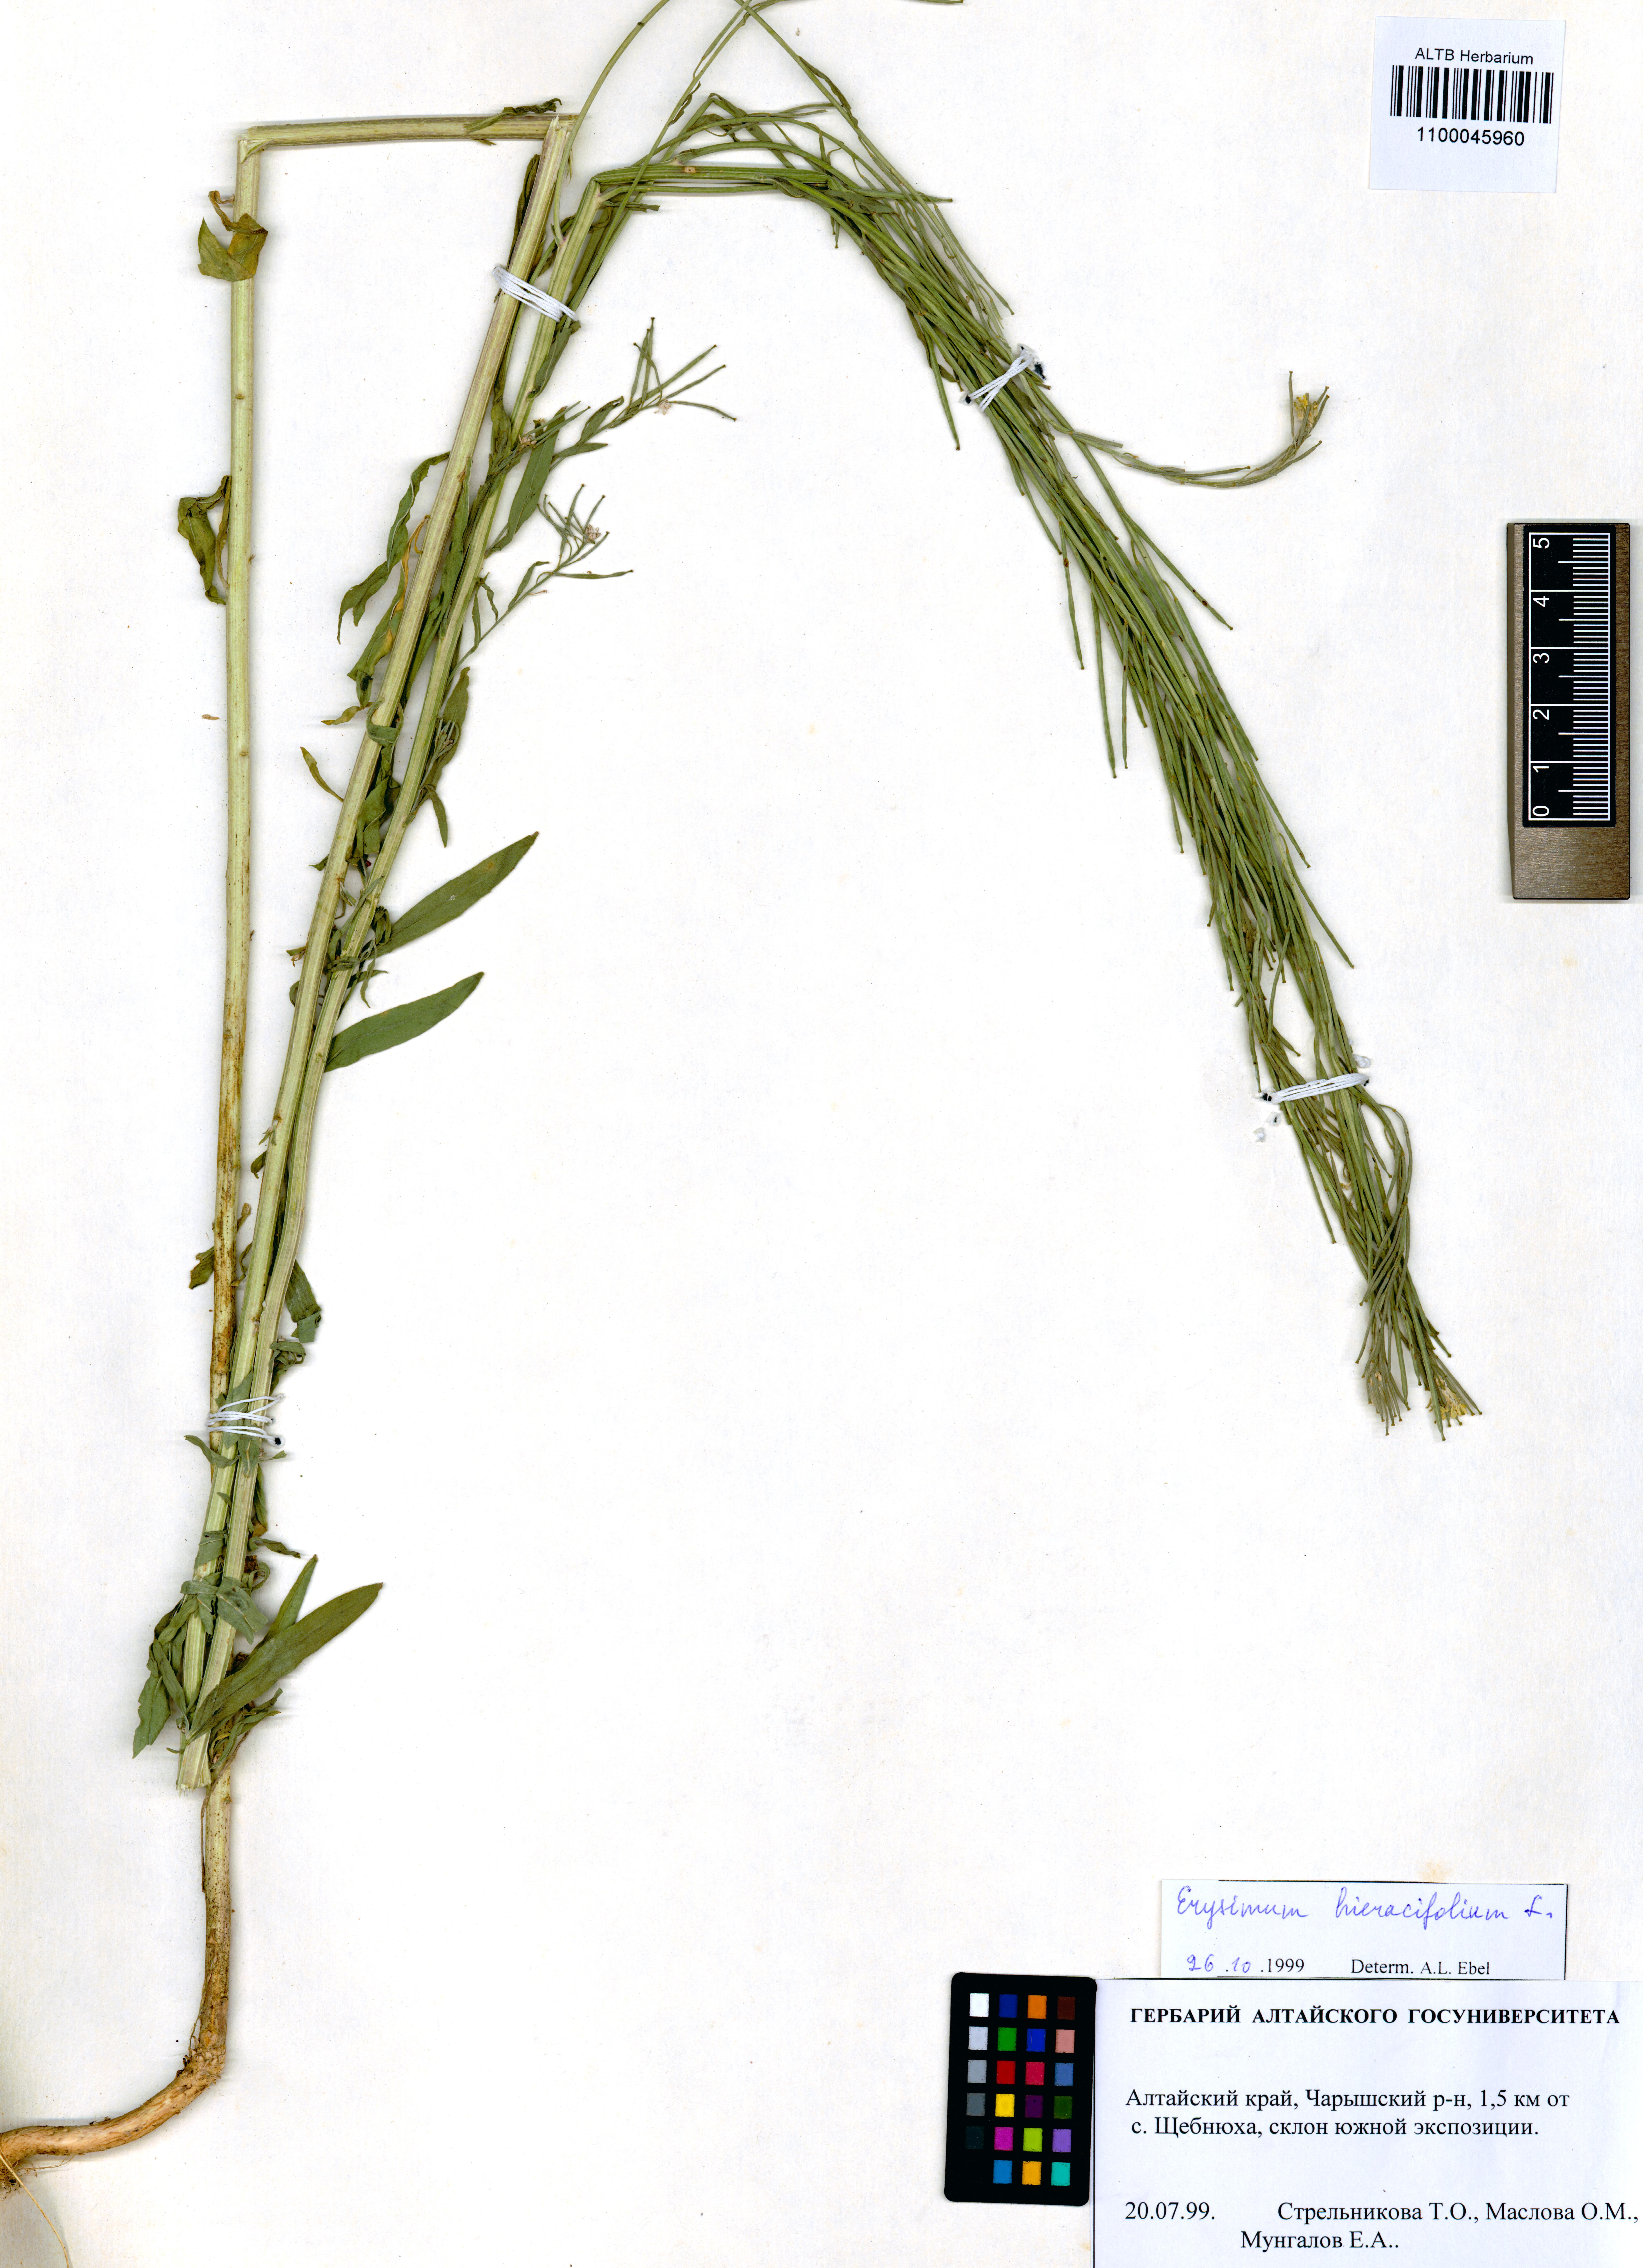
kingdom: Plantae
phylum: Tracheophyta
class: Magnoliopsida
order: Brassicales
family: Brassicaceae
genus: Erysimum
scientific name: Erysimum hieraciifolium
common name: European wallflower
